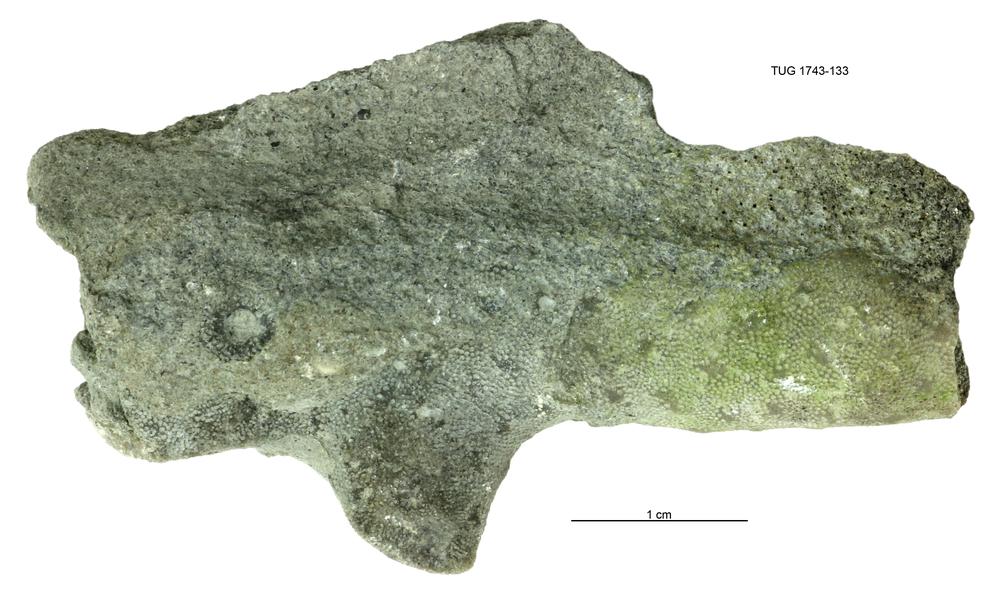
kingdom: Animalia
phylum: Bryozoa
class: Stenolaemata
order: Cystoporida
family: Fistuliporidae
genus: Fistulipora
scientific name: Fistulipora przhidolensis
